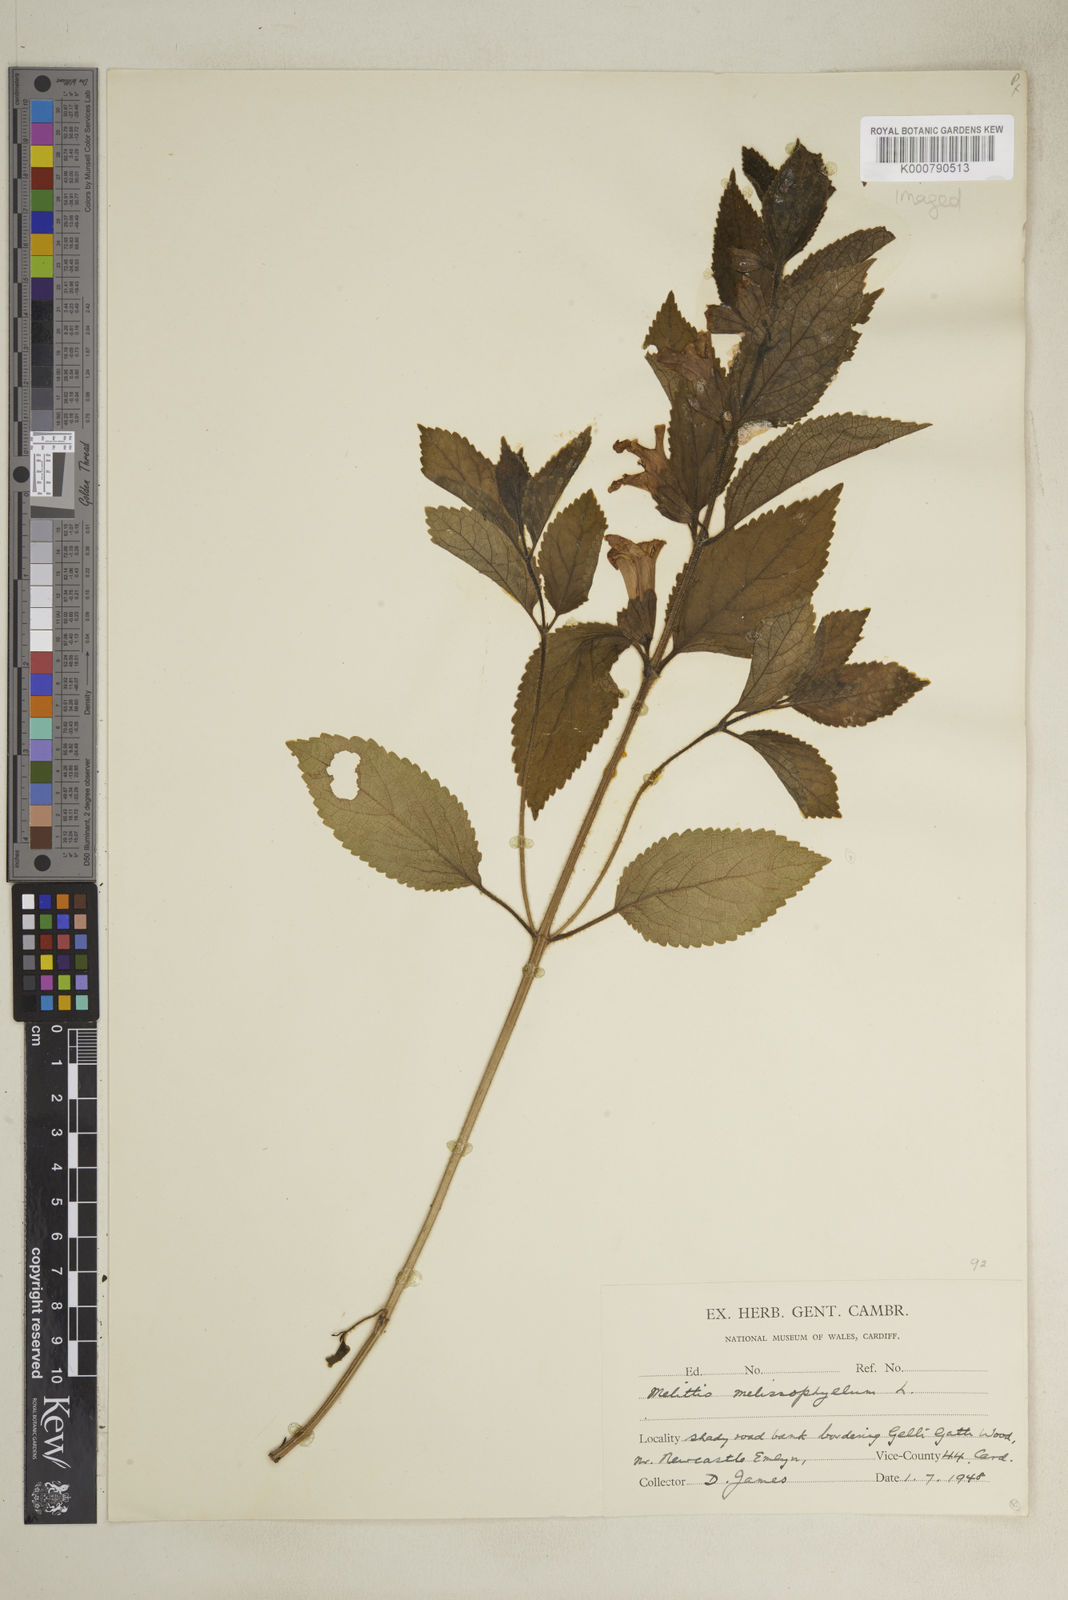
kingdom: Plantae
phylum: Tracheophyta
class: Magnoliopsida
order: Lamiales
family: Lamiaceae
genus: Melittis
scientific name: Melittis melissophyllum
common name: Bastard balm
